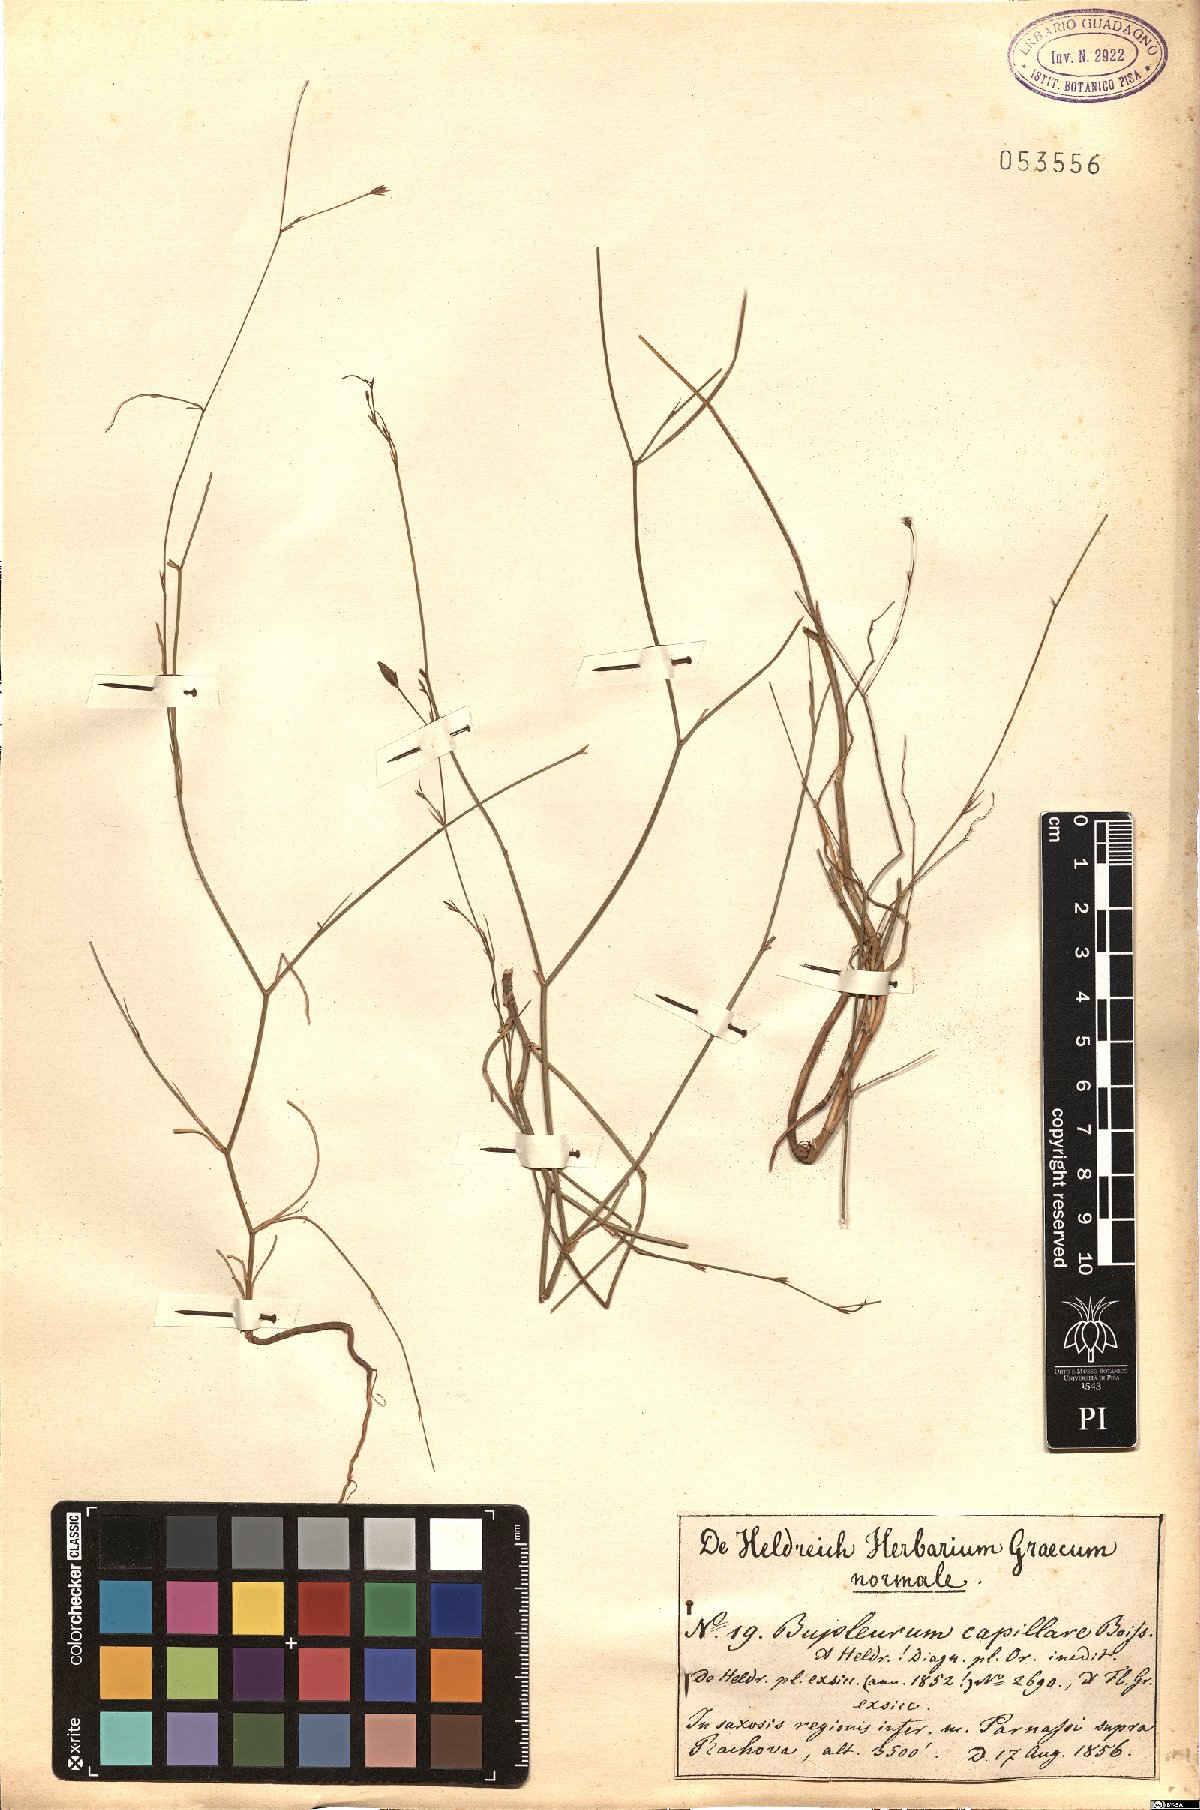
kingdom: Plantae
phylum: Tracheophyta
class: Magnoliopsida
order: Apiales
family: Apiaceae
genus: Bupleurum
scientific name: Bupleurum capillare
